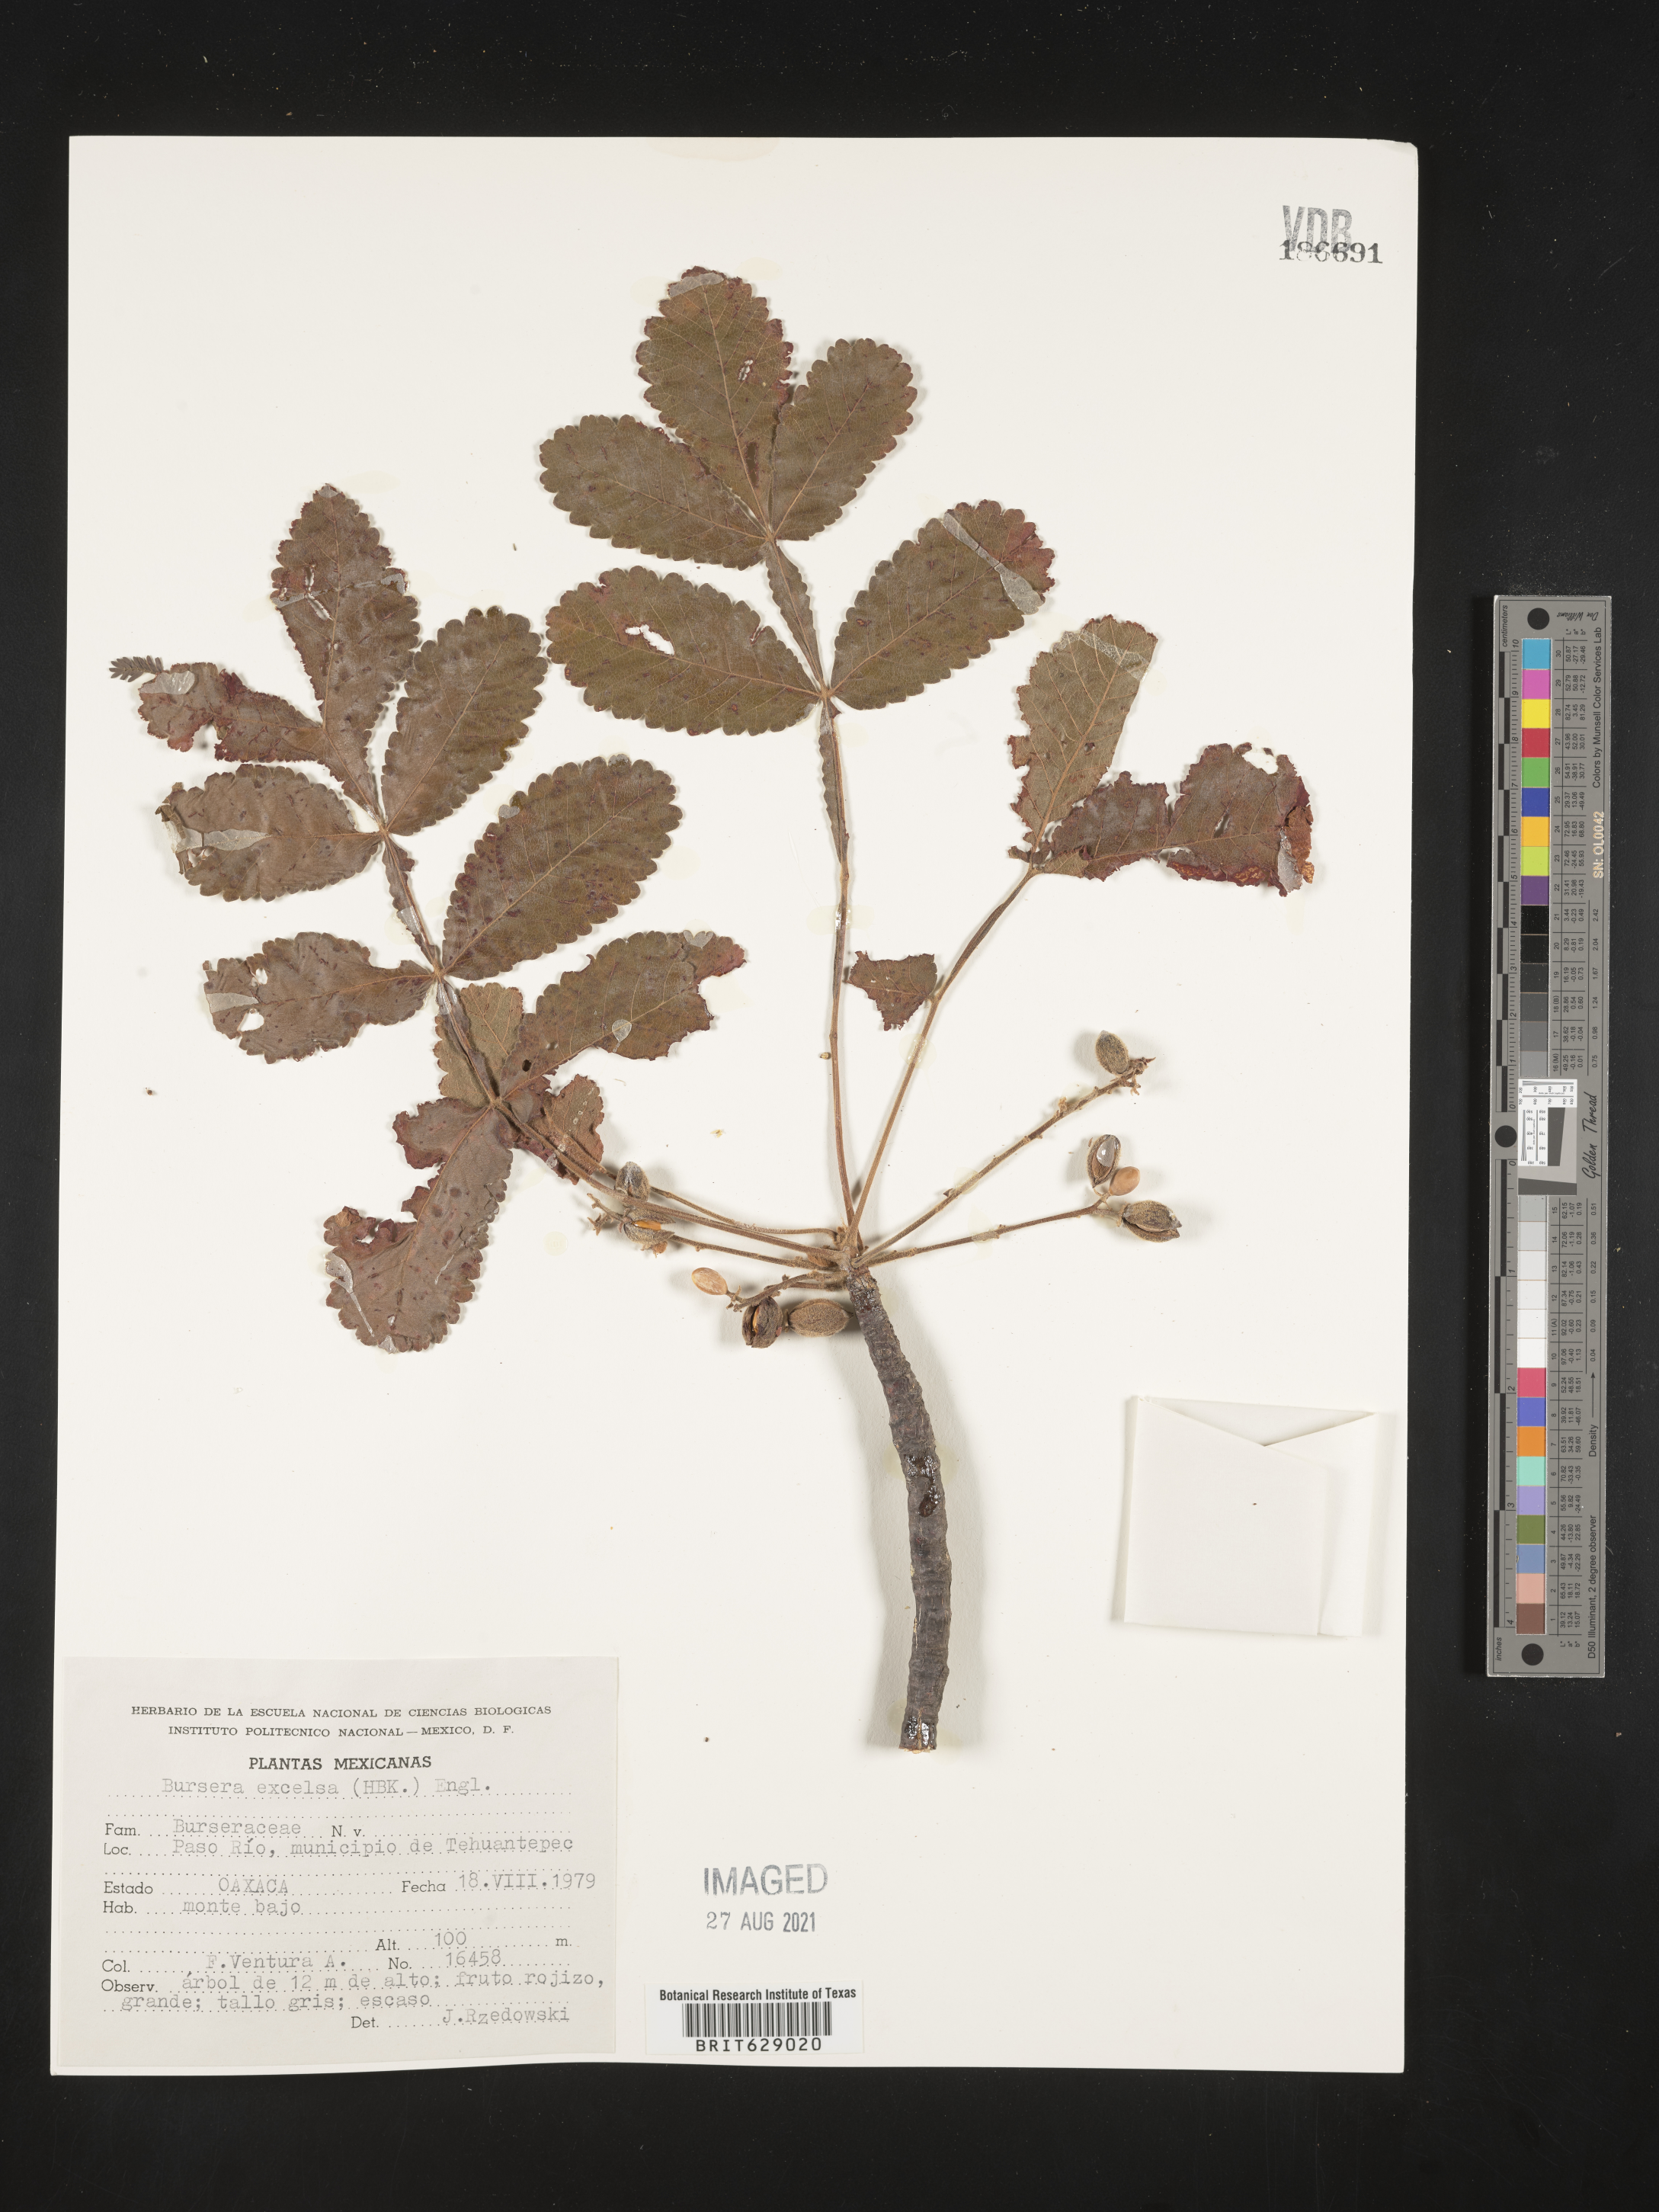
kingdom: Plantae
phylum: Tracheophyta
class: Magnoliopsida
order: Sapindales
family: Burseraceae
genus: Bursera
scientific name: Bursera
